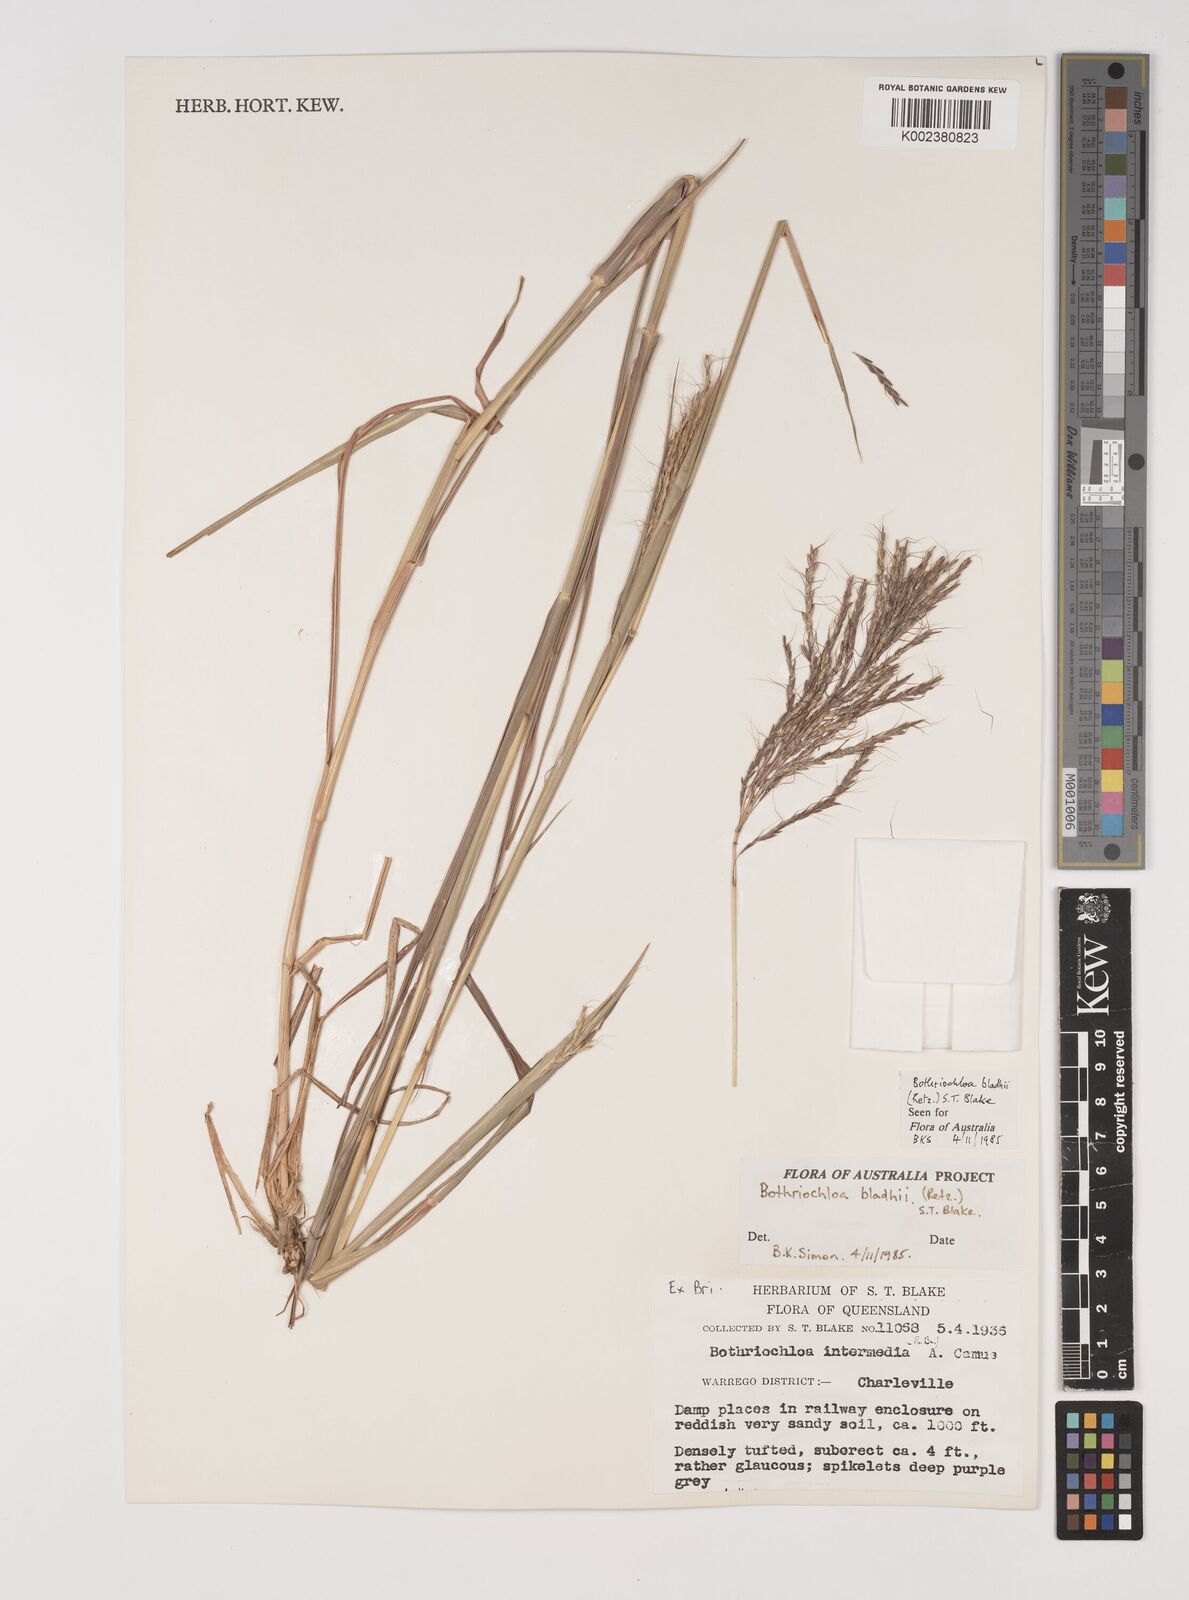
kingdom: Plantae
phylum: Tracheophyta
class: Liliopsida
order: Poales
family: Poaceae
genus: Bothriochloa
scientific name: Bothriochloa bladhii
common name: Caucasian bluestem
